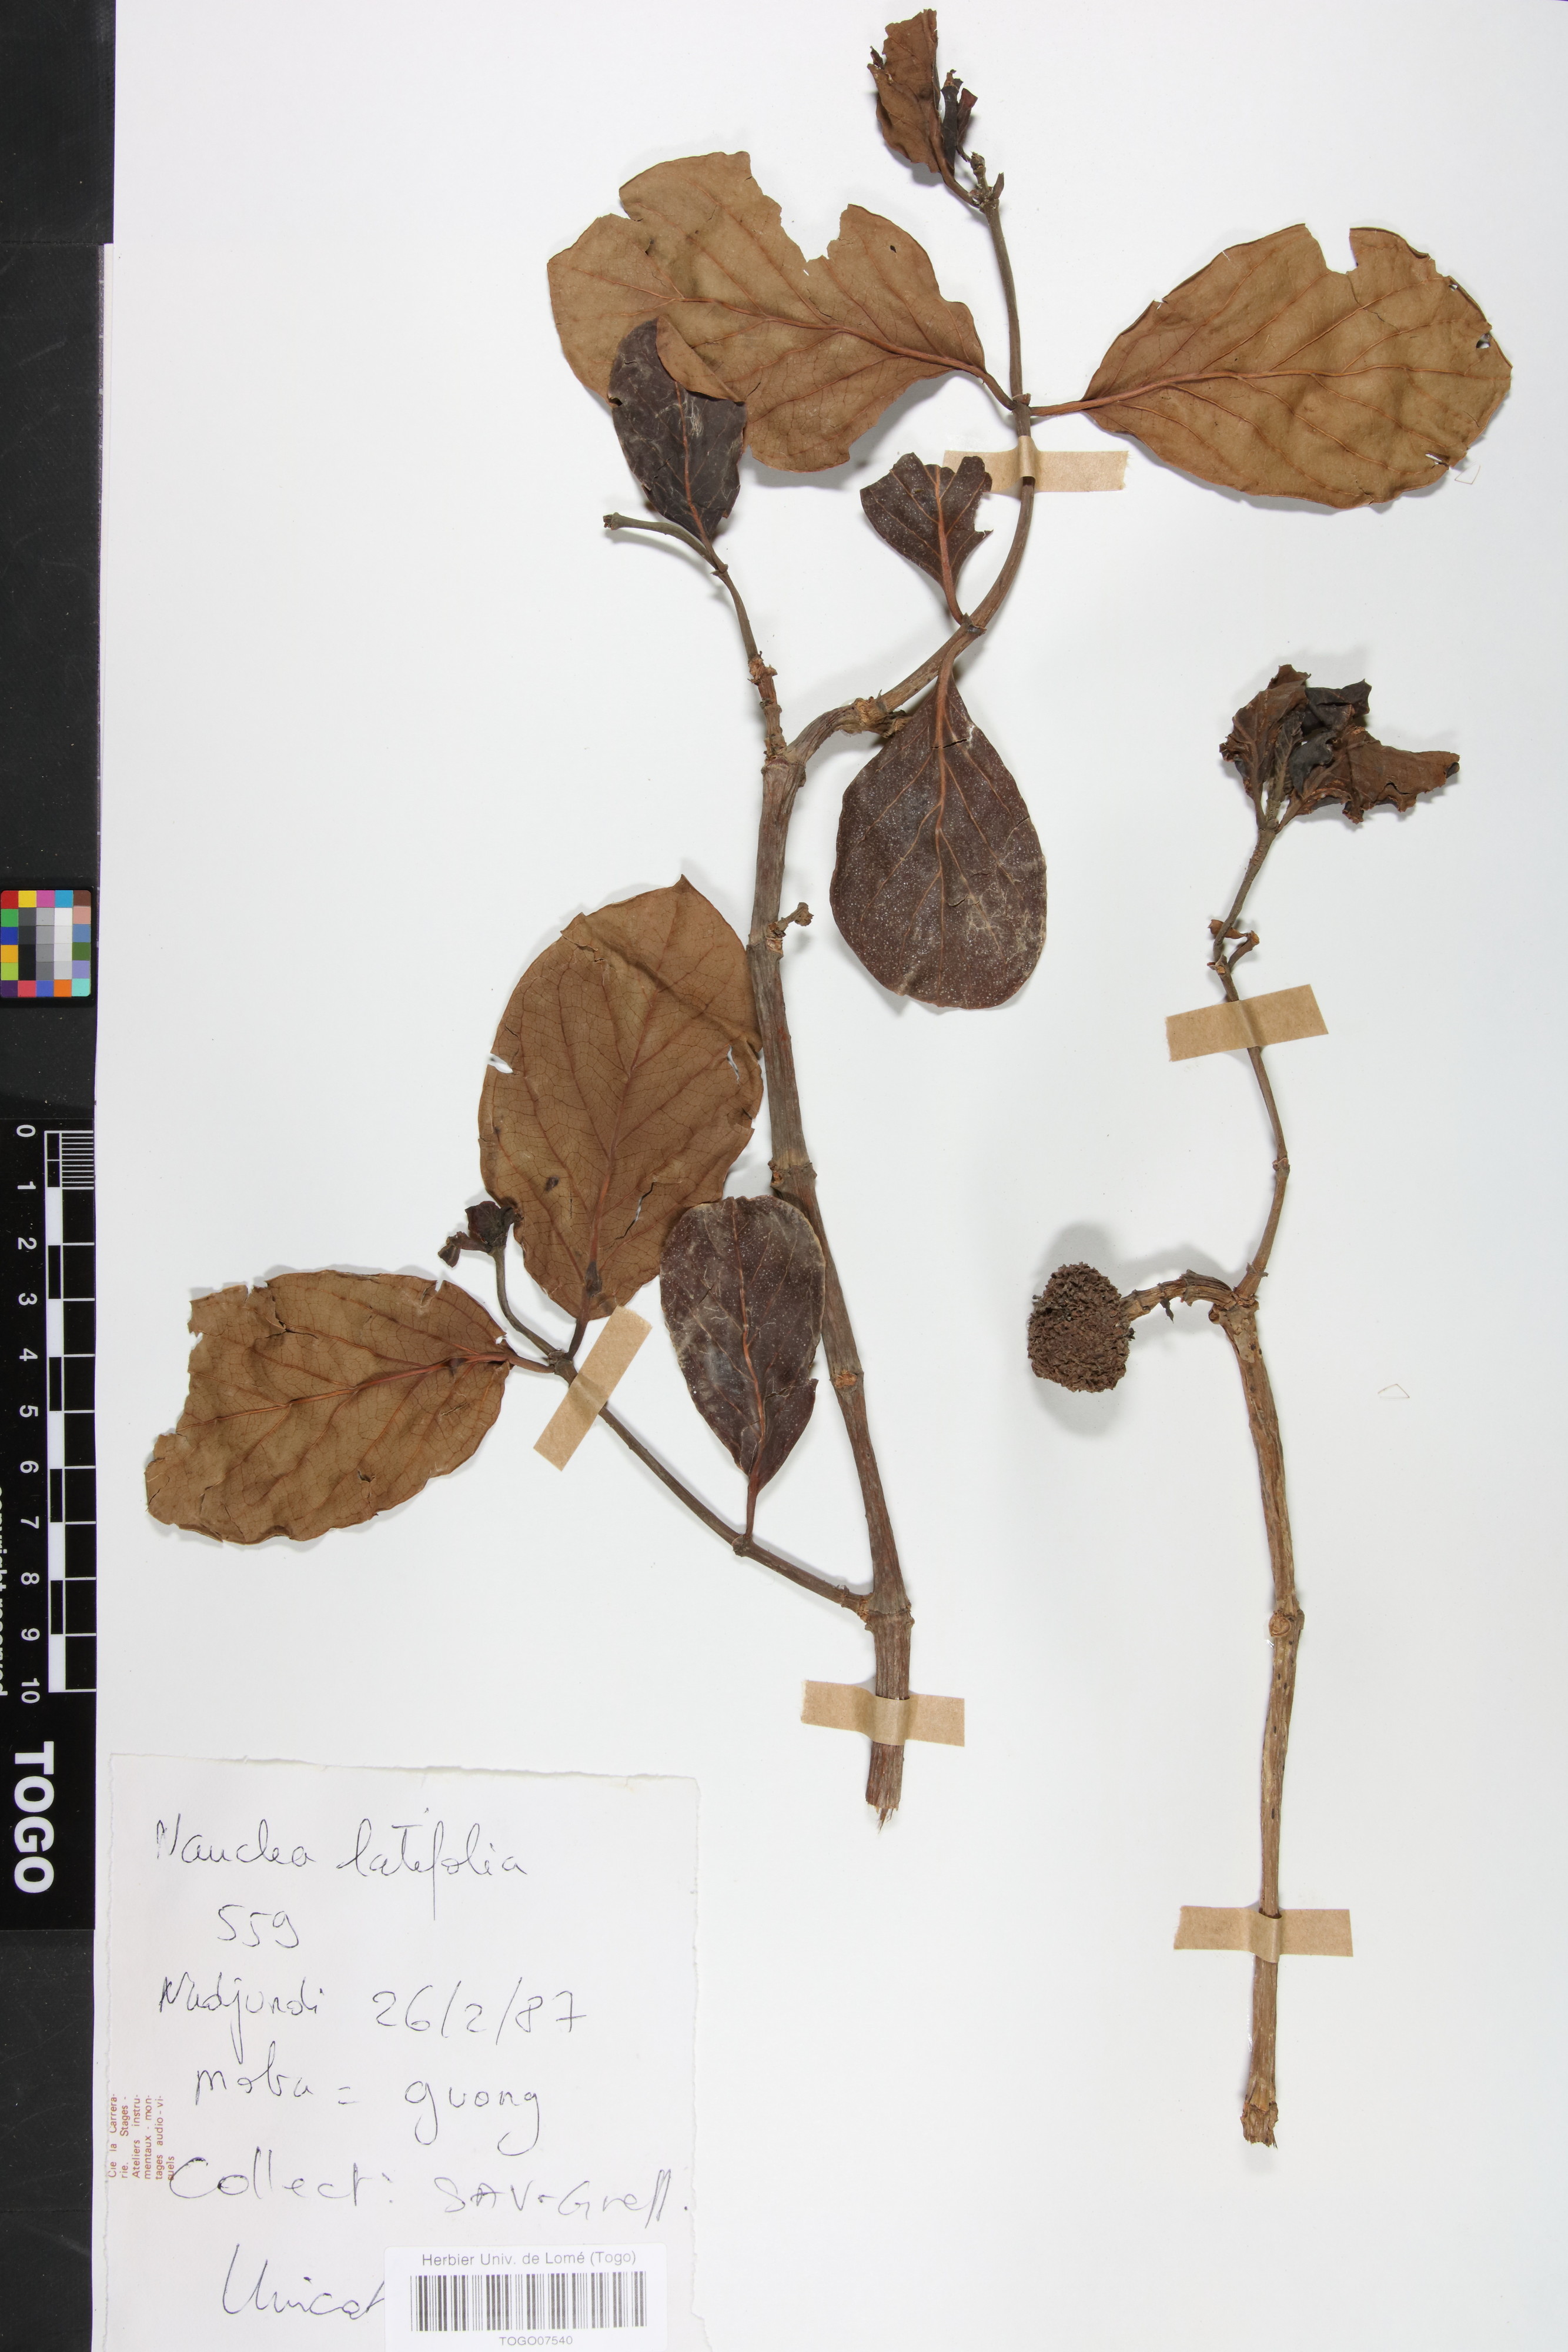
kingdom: Plantae
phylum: Tracheophyta
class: Magnoliopsida
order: Gentianales
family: Rubiaceae
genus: Nauclea
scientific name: Nauclea latifolia
